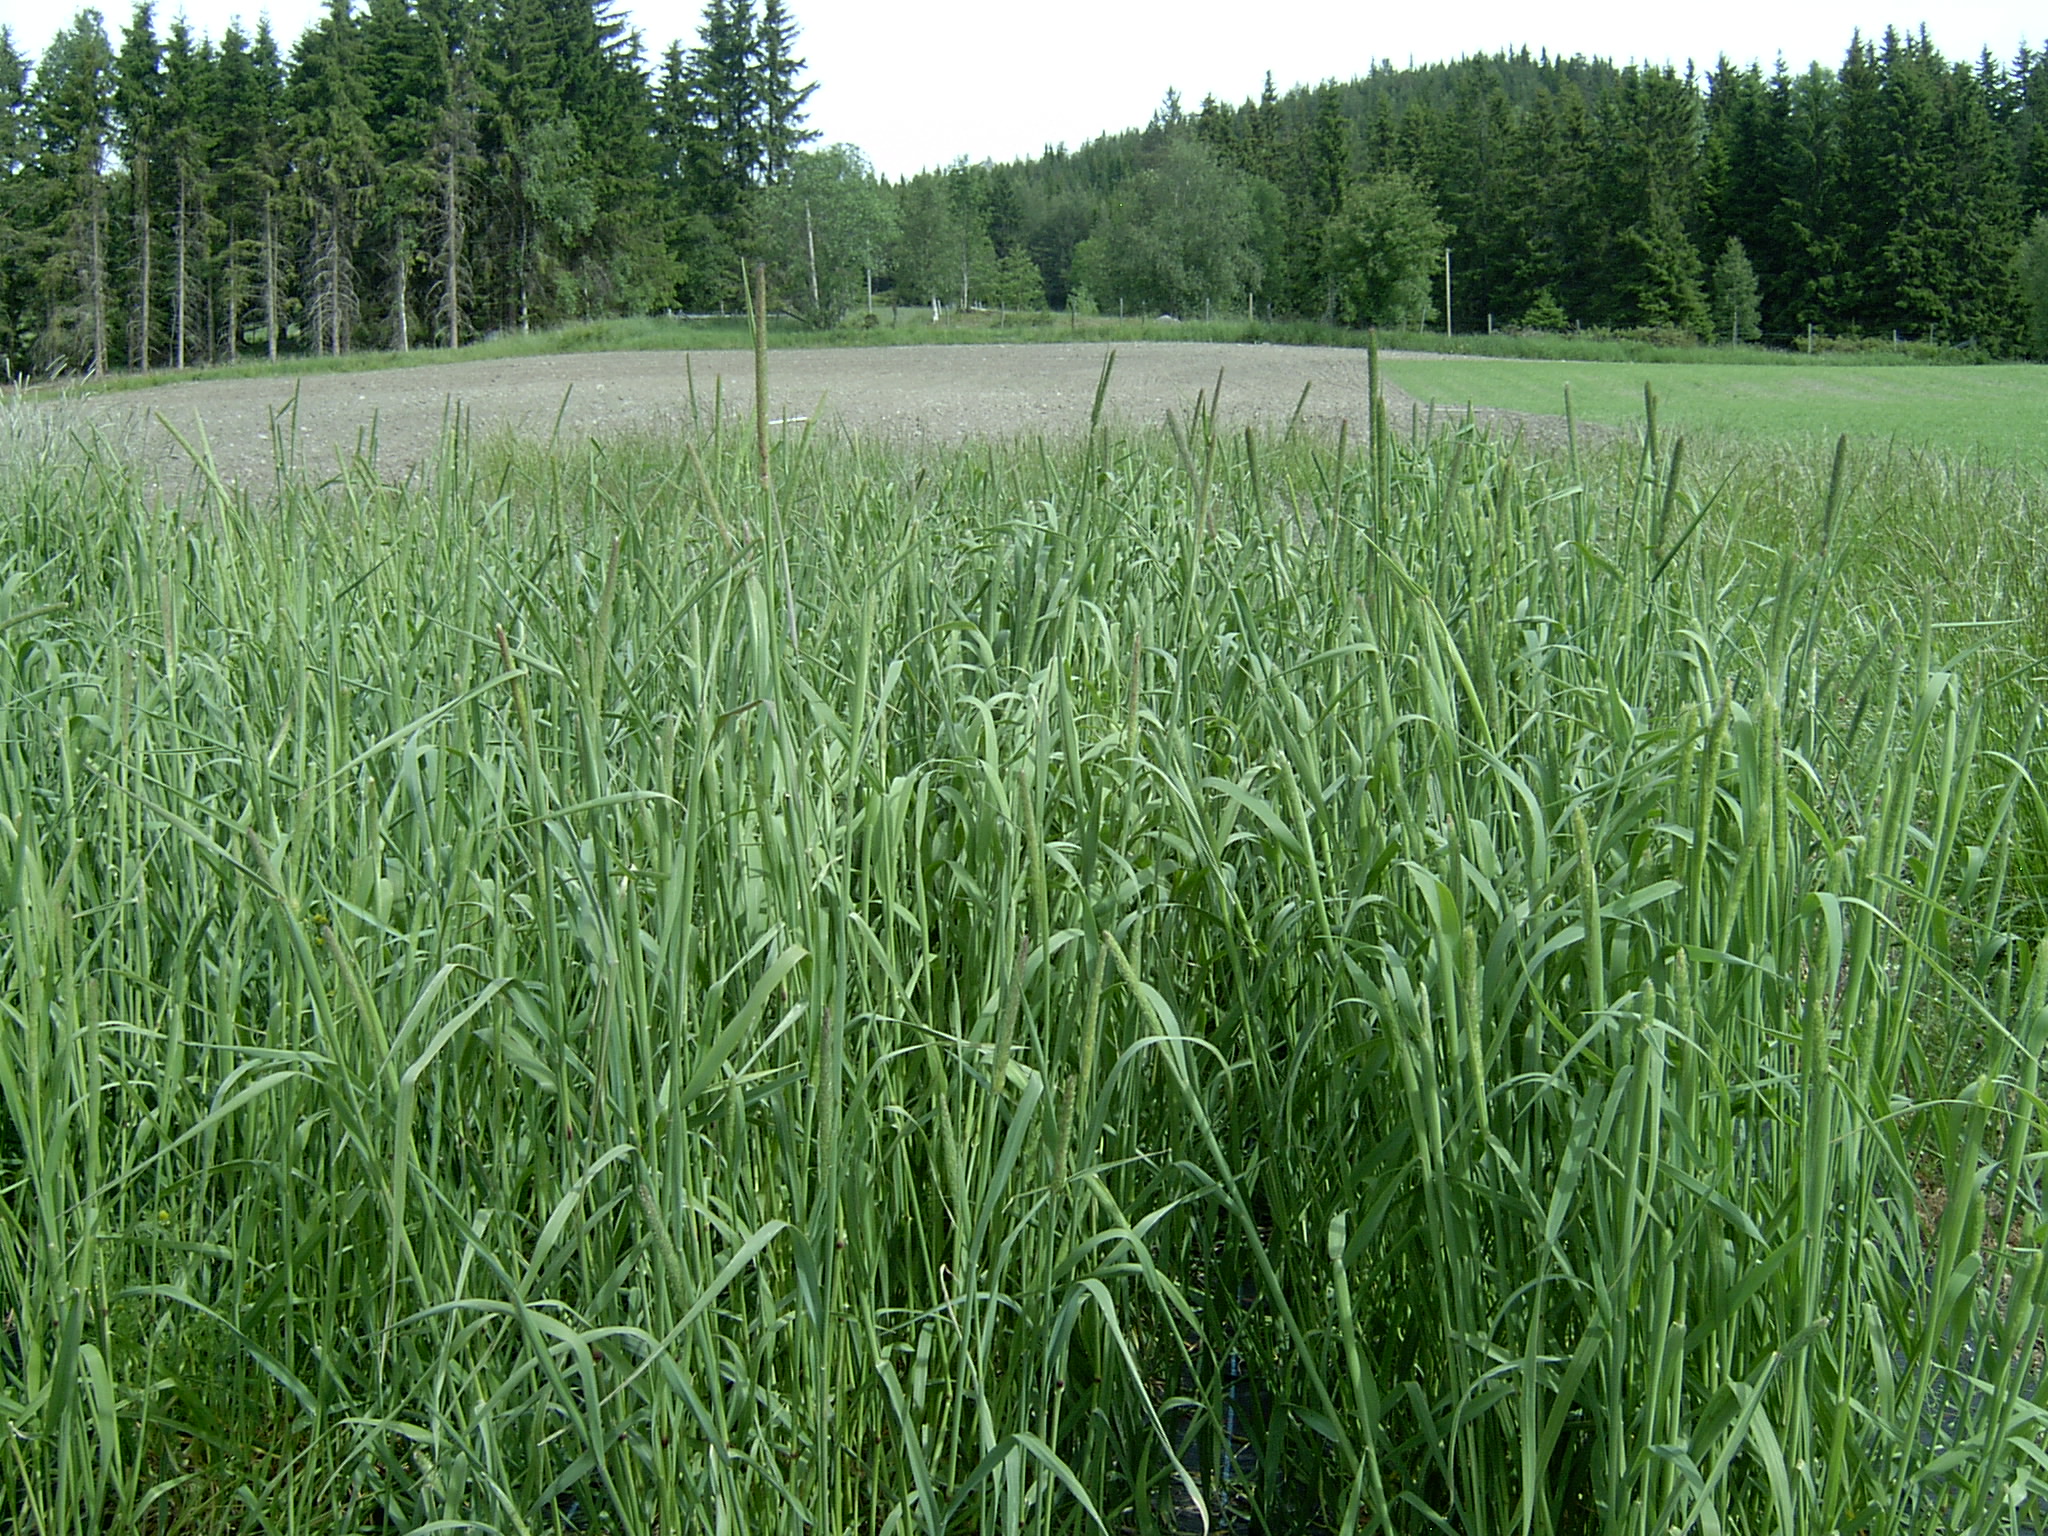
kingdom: Plantae
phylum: Tracheophyta
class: Liliopsida
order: Poales
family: Poaceae
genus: Phleum
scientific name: Phleum pratense
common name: Timothy grass
